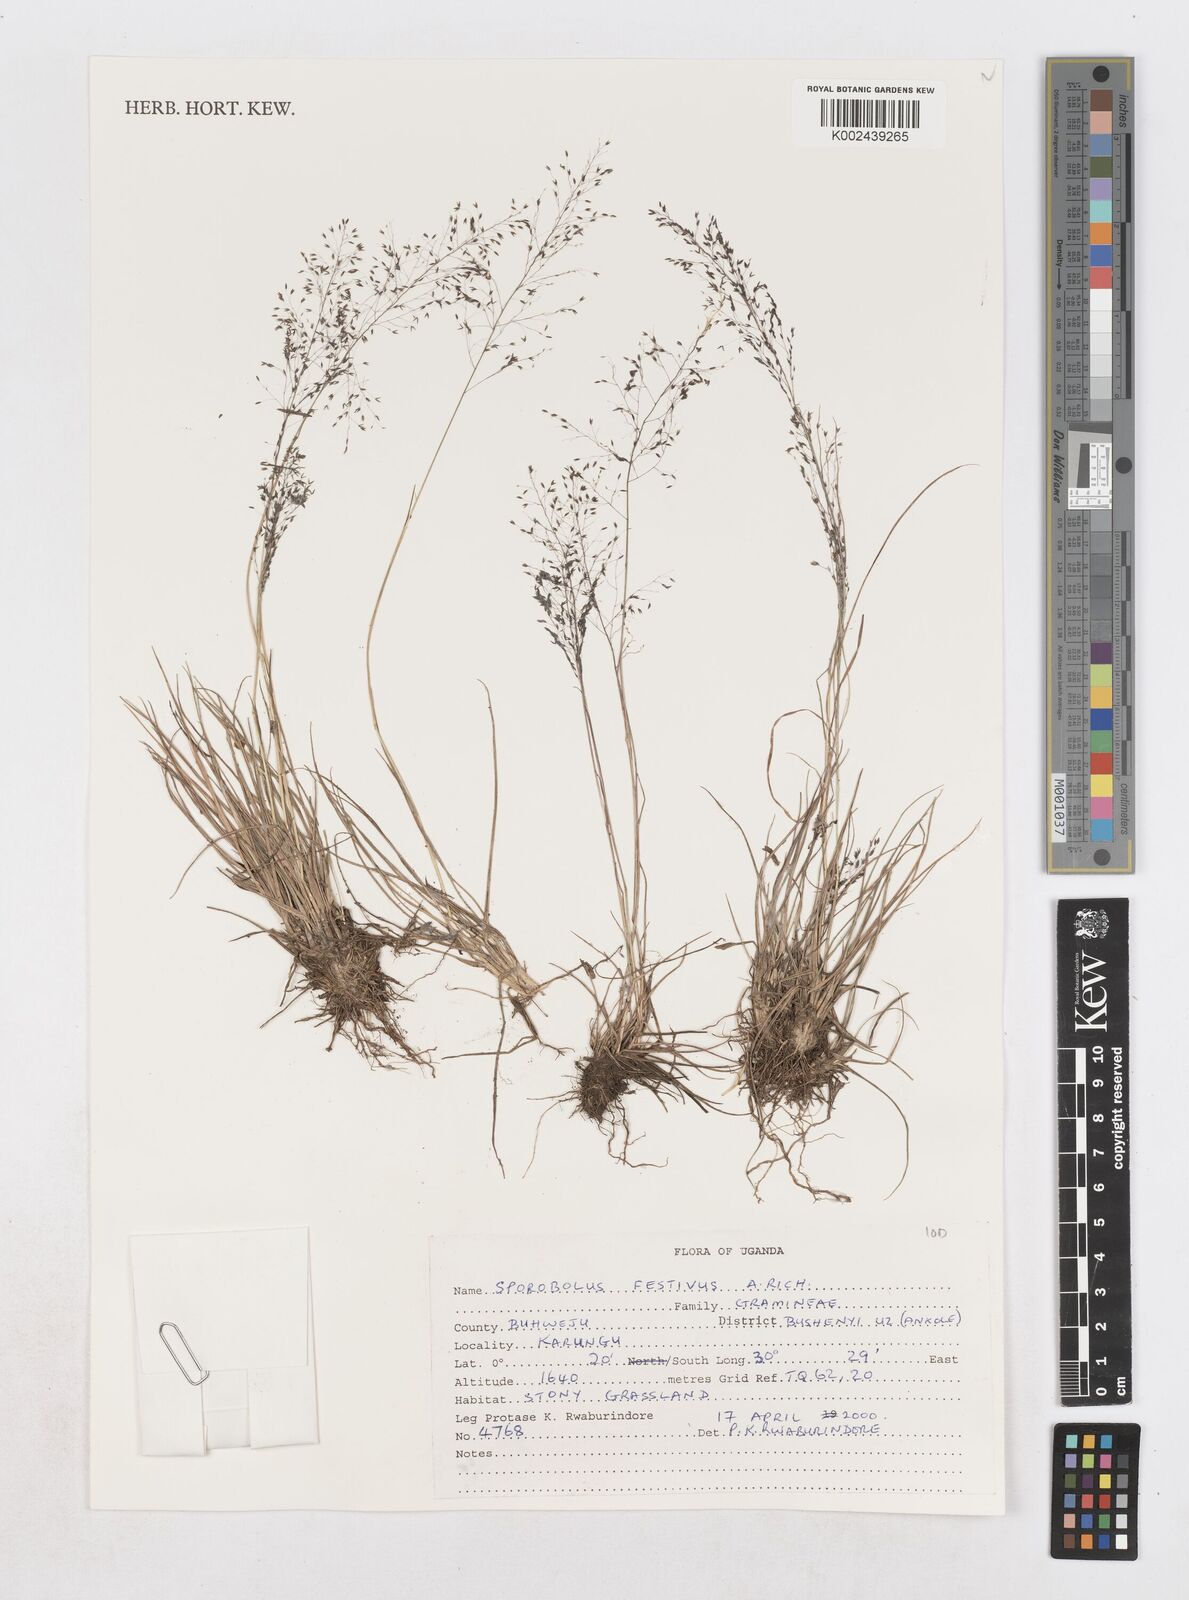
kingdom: Plantae
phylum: Tracheophyta
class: Liliopsida
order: Poales
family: Poaceae
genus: Sporobolus
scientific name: Sporobolus festivus
